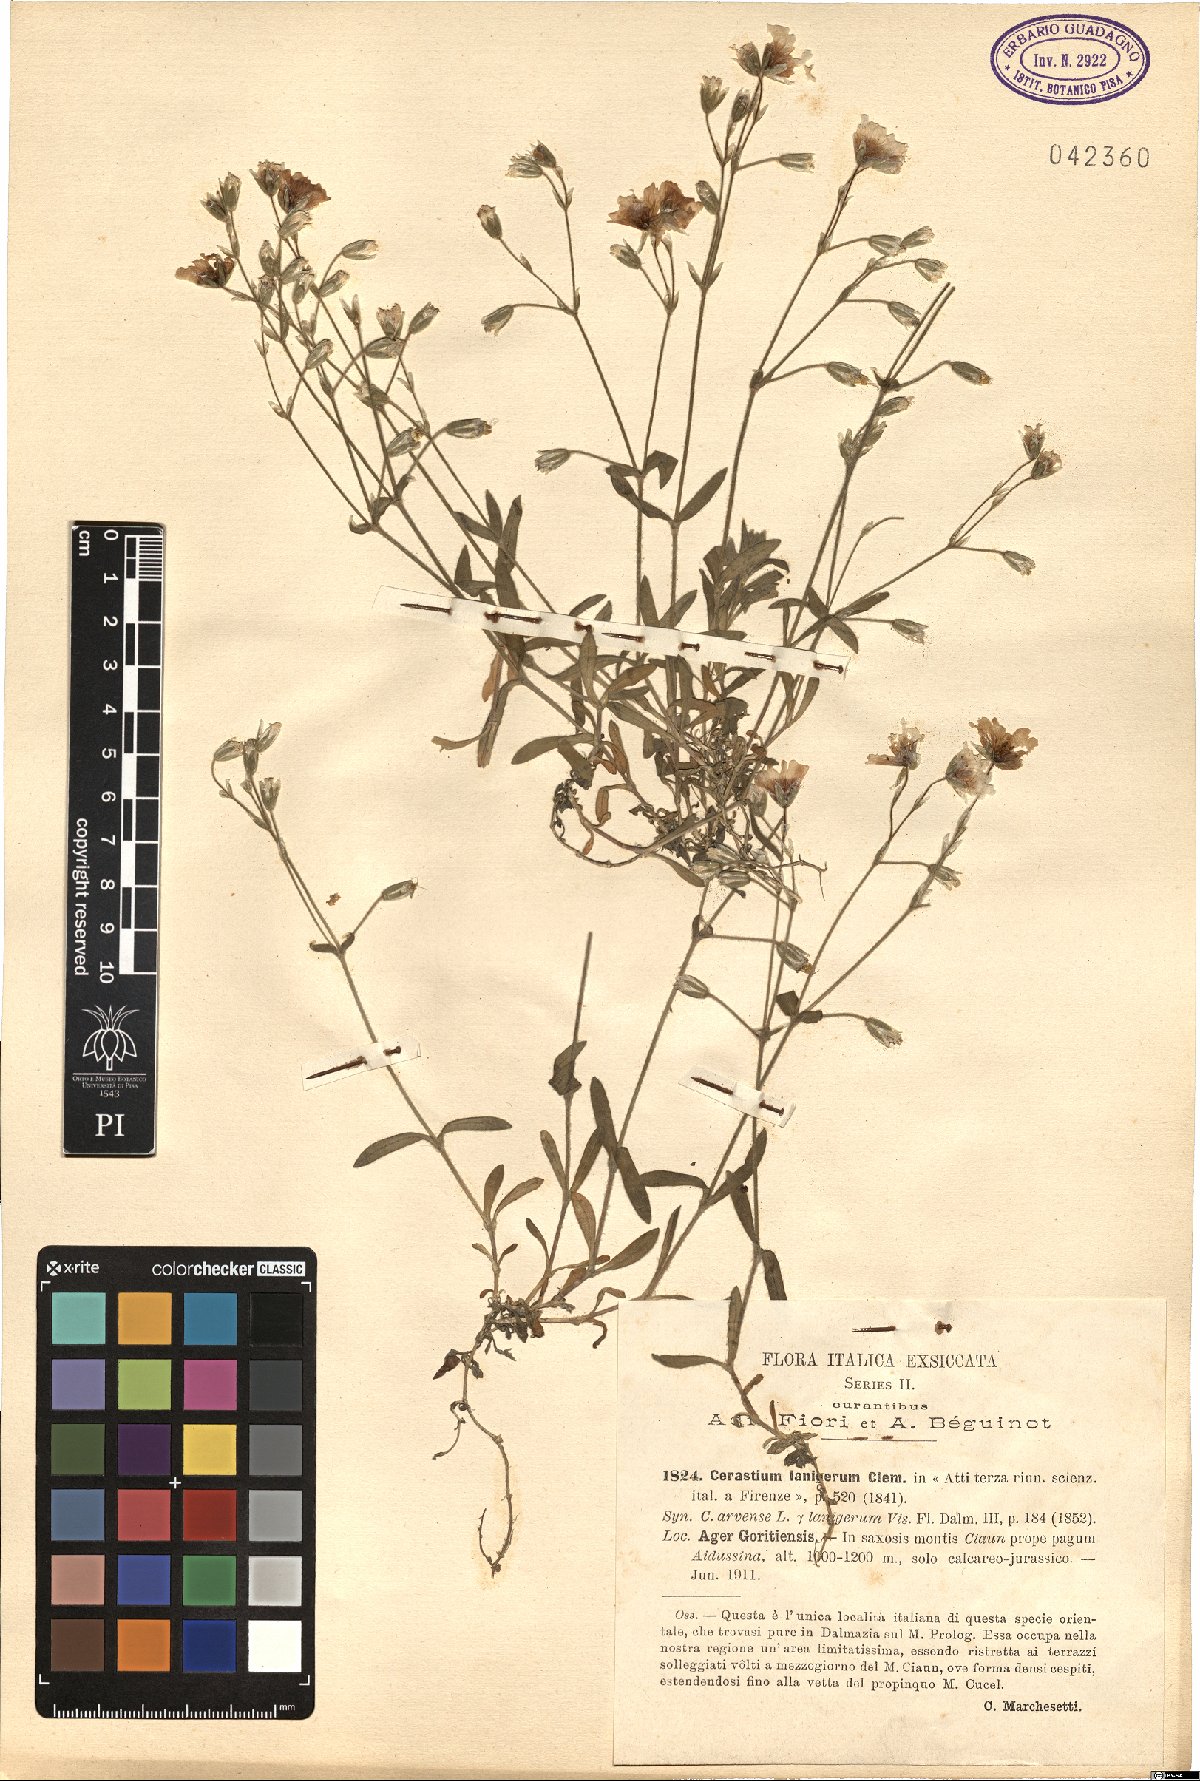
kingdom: Plantae
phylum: Tracheophyta
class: Magnoliopsida
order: Caryophyllales
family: Caryophyllaceae
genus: Cerastium
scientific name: Cerastium decalvans
